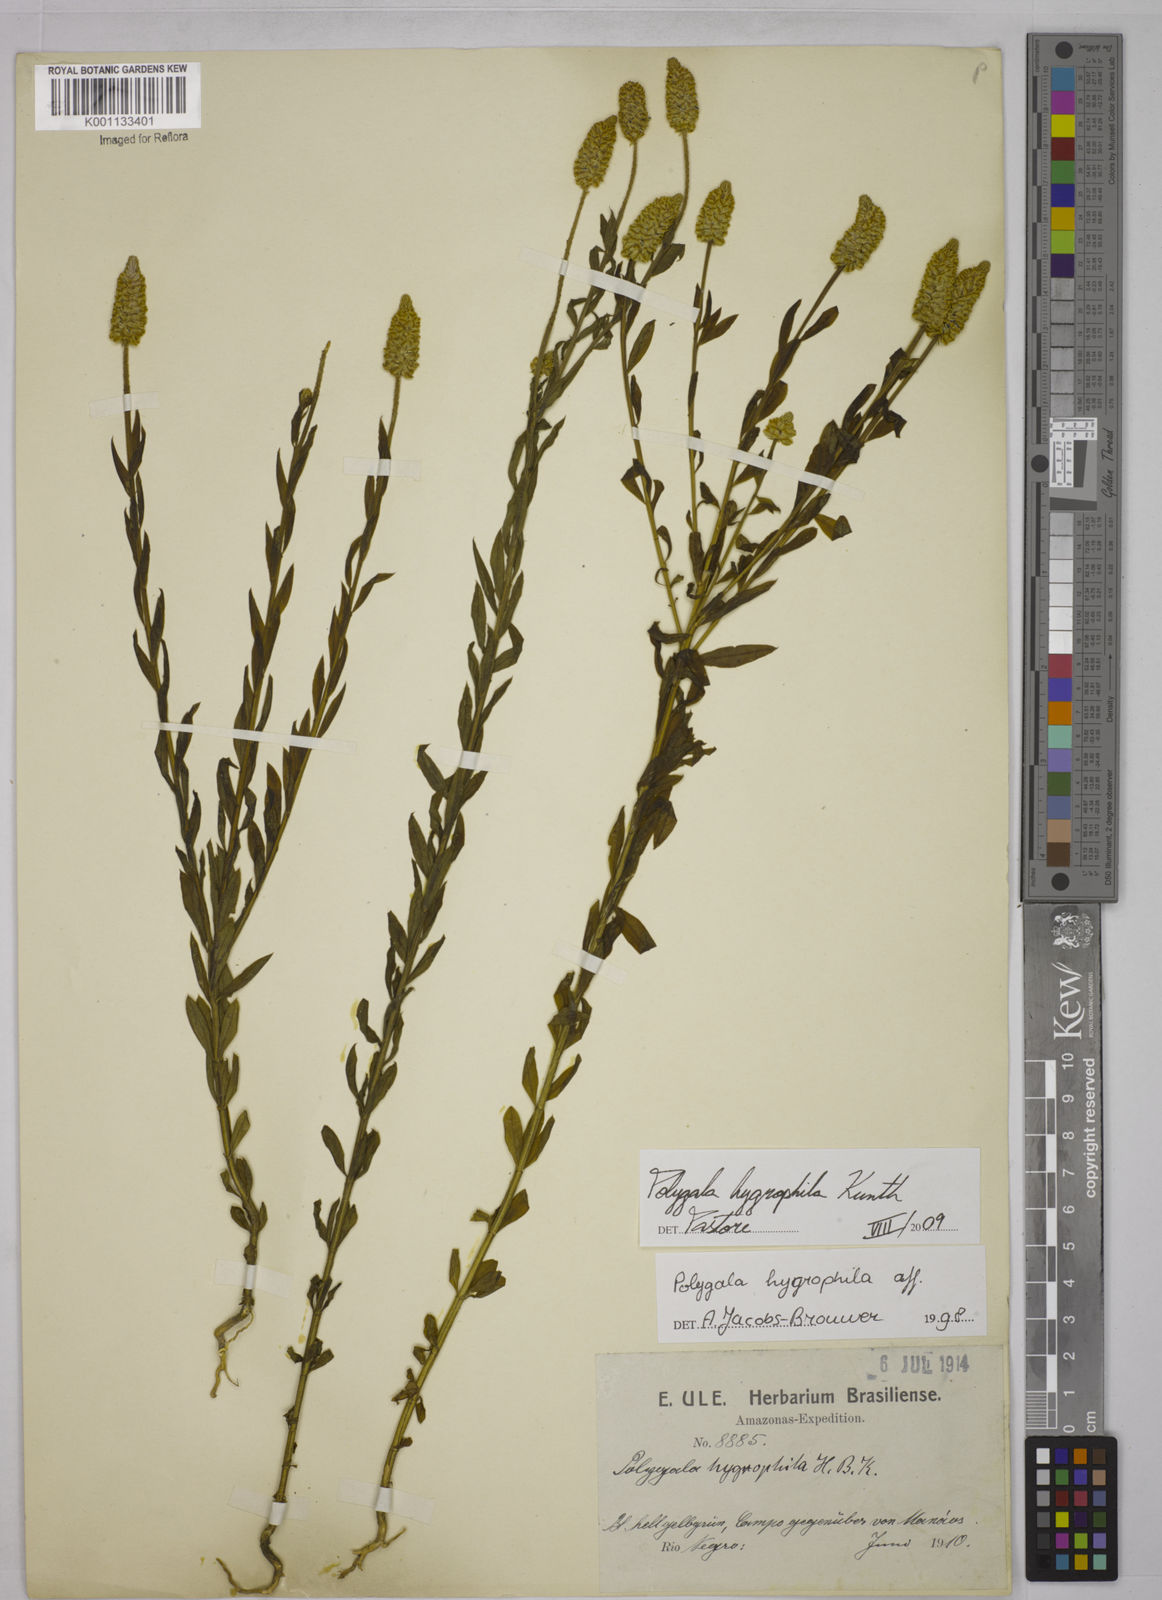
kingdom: Plantae
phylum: Tracheophyta
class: Magnoliopsida
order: Fabales
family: Polygalaceae
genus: Polygala
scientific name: Polygala hygrophila
